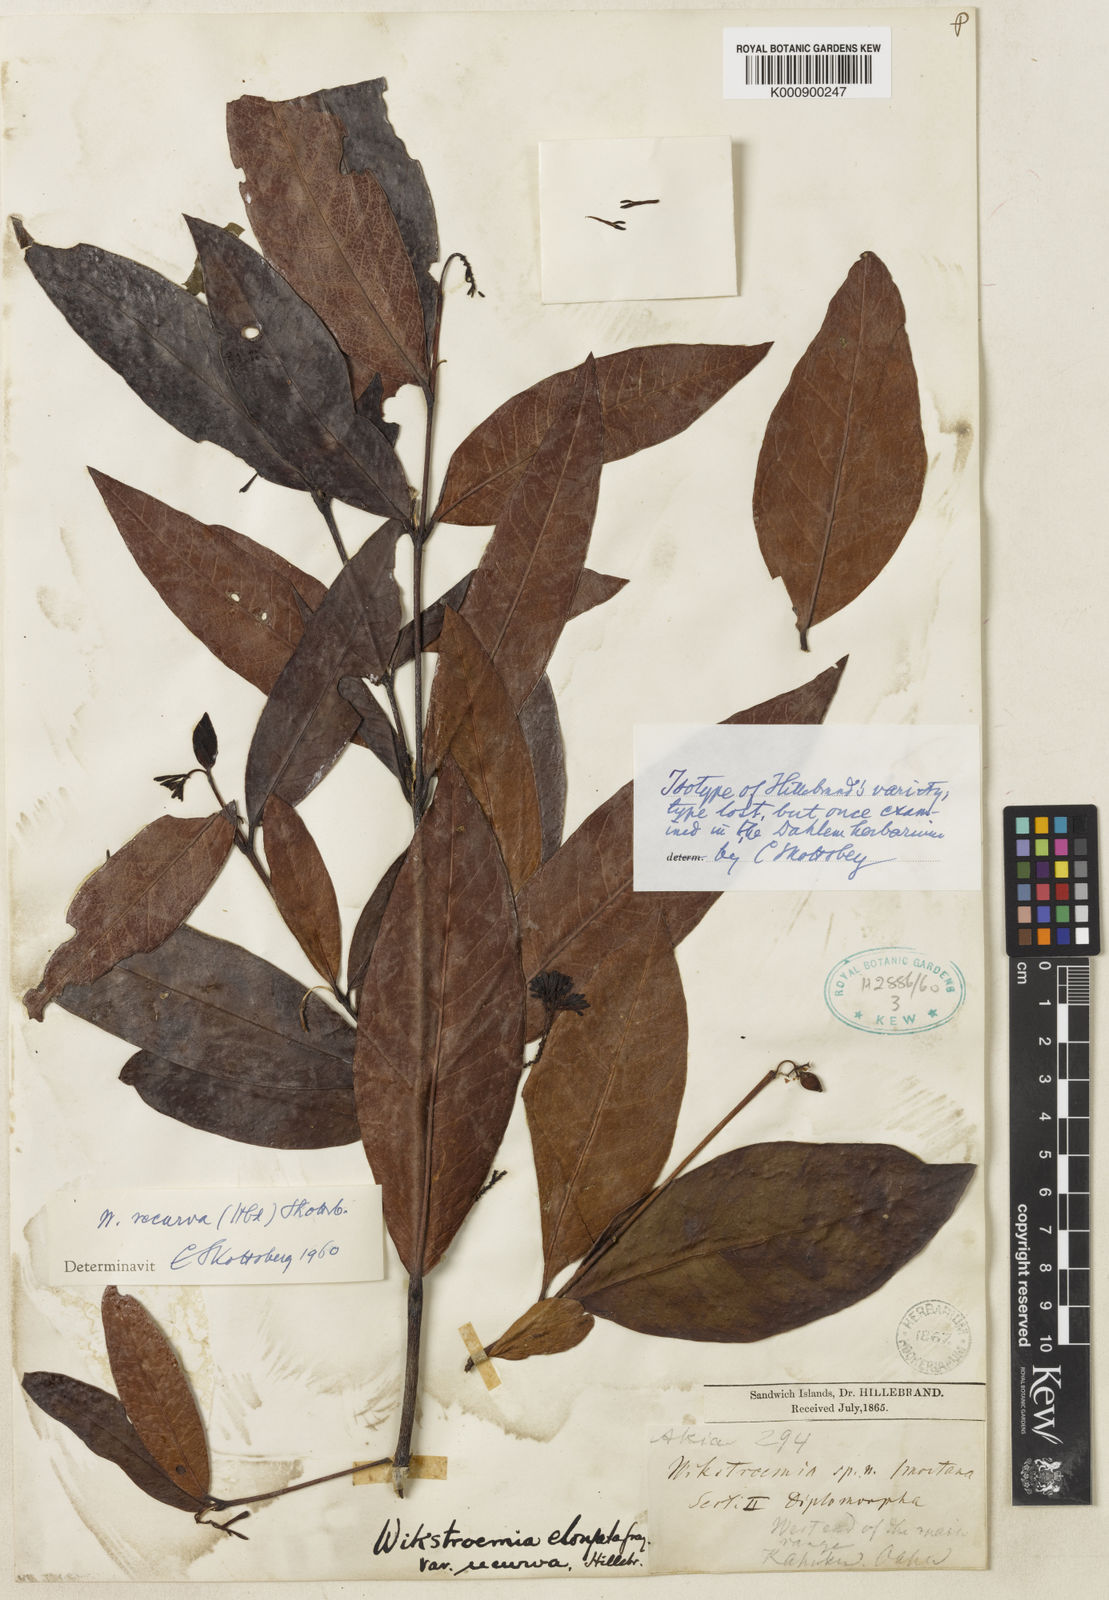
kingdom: Plantae
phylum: Tracheophyta
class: Magnoliopsida
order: Malvales
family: Thymelaeaceae
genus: Wikstroemia
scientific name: Wikstroemia oahuensis
